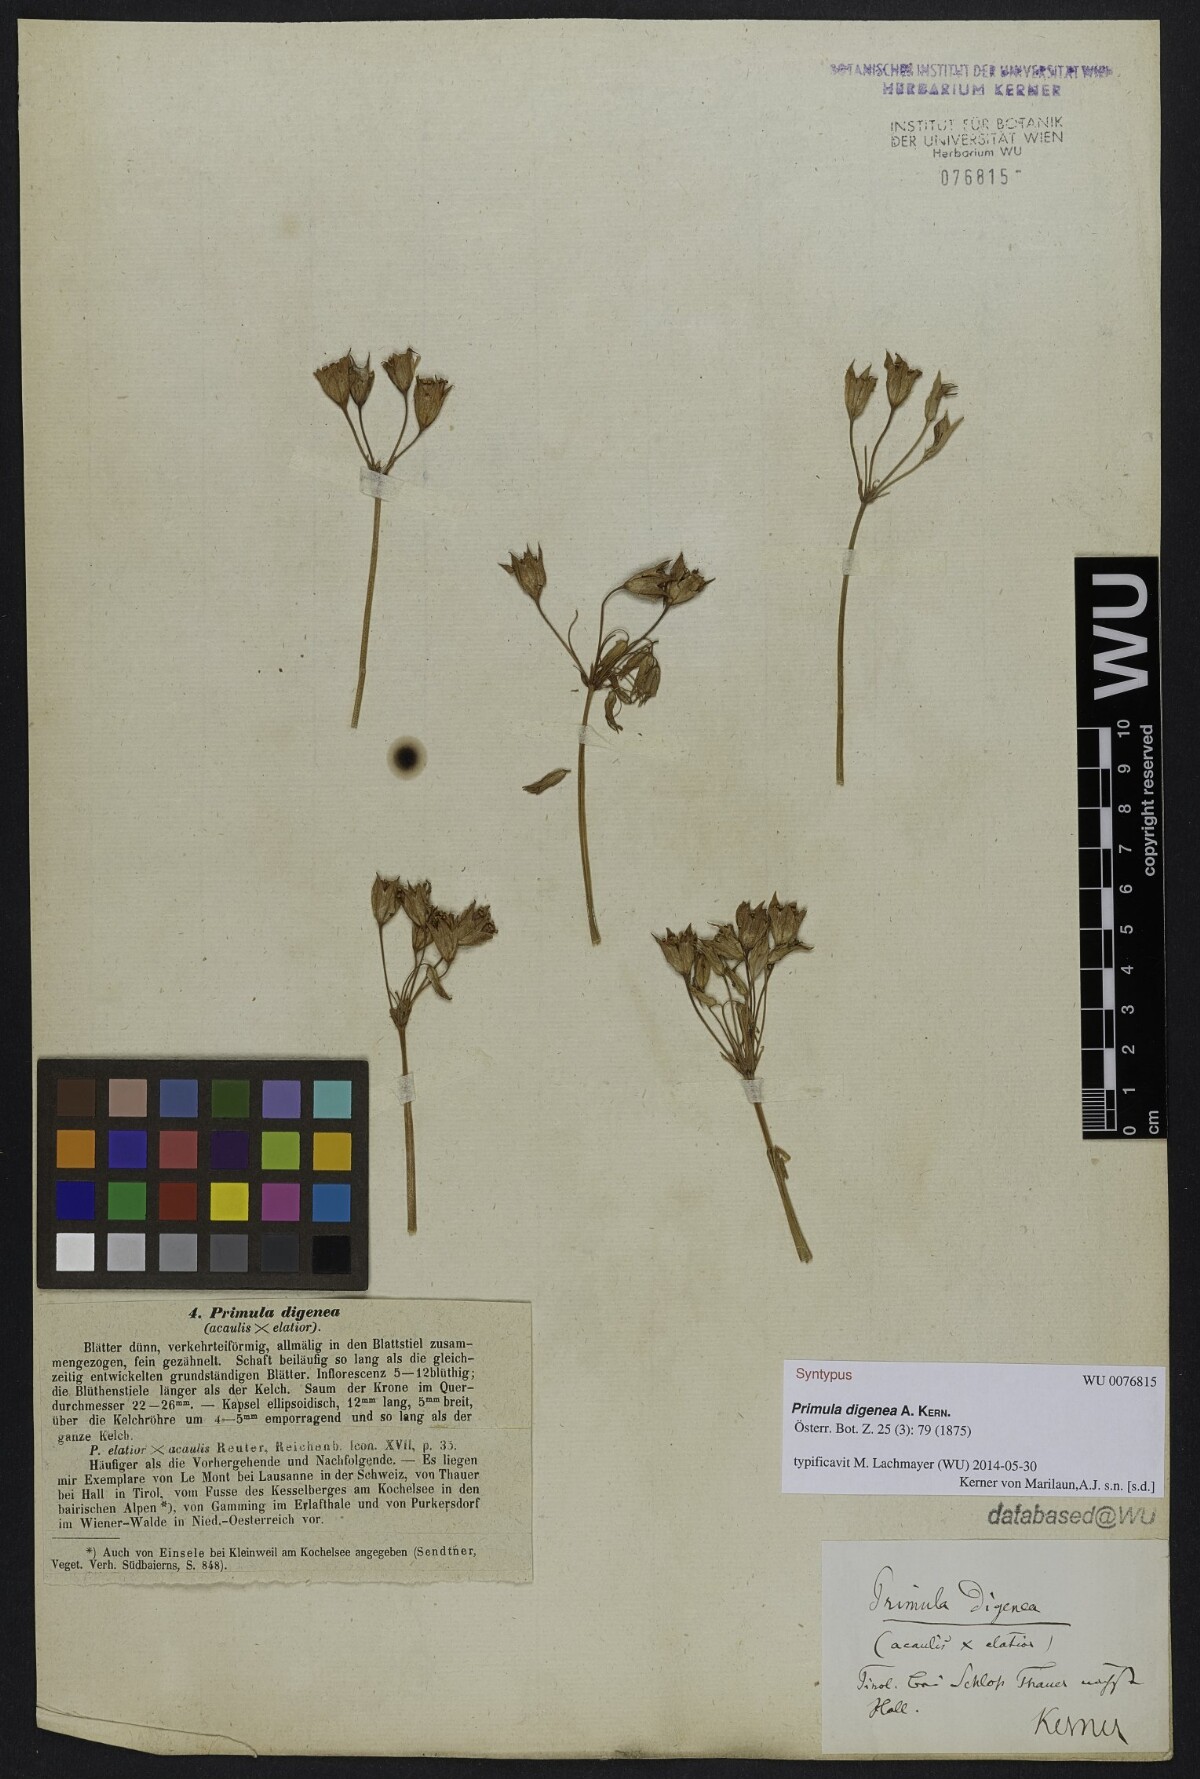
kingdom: Plantae
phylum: Tracheophyta
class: Magnoliopsida
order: Ericales
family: Primulaceae
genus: Primula
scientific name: Primula digenea
